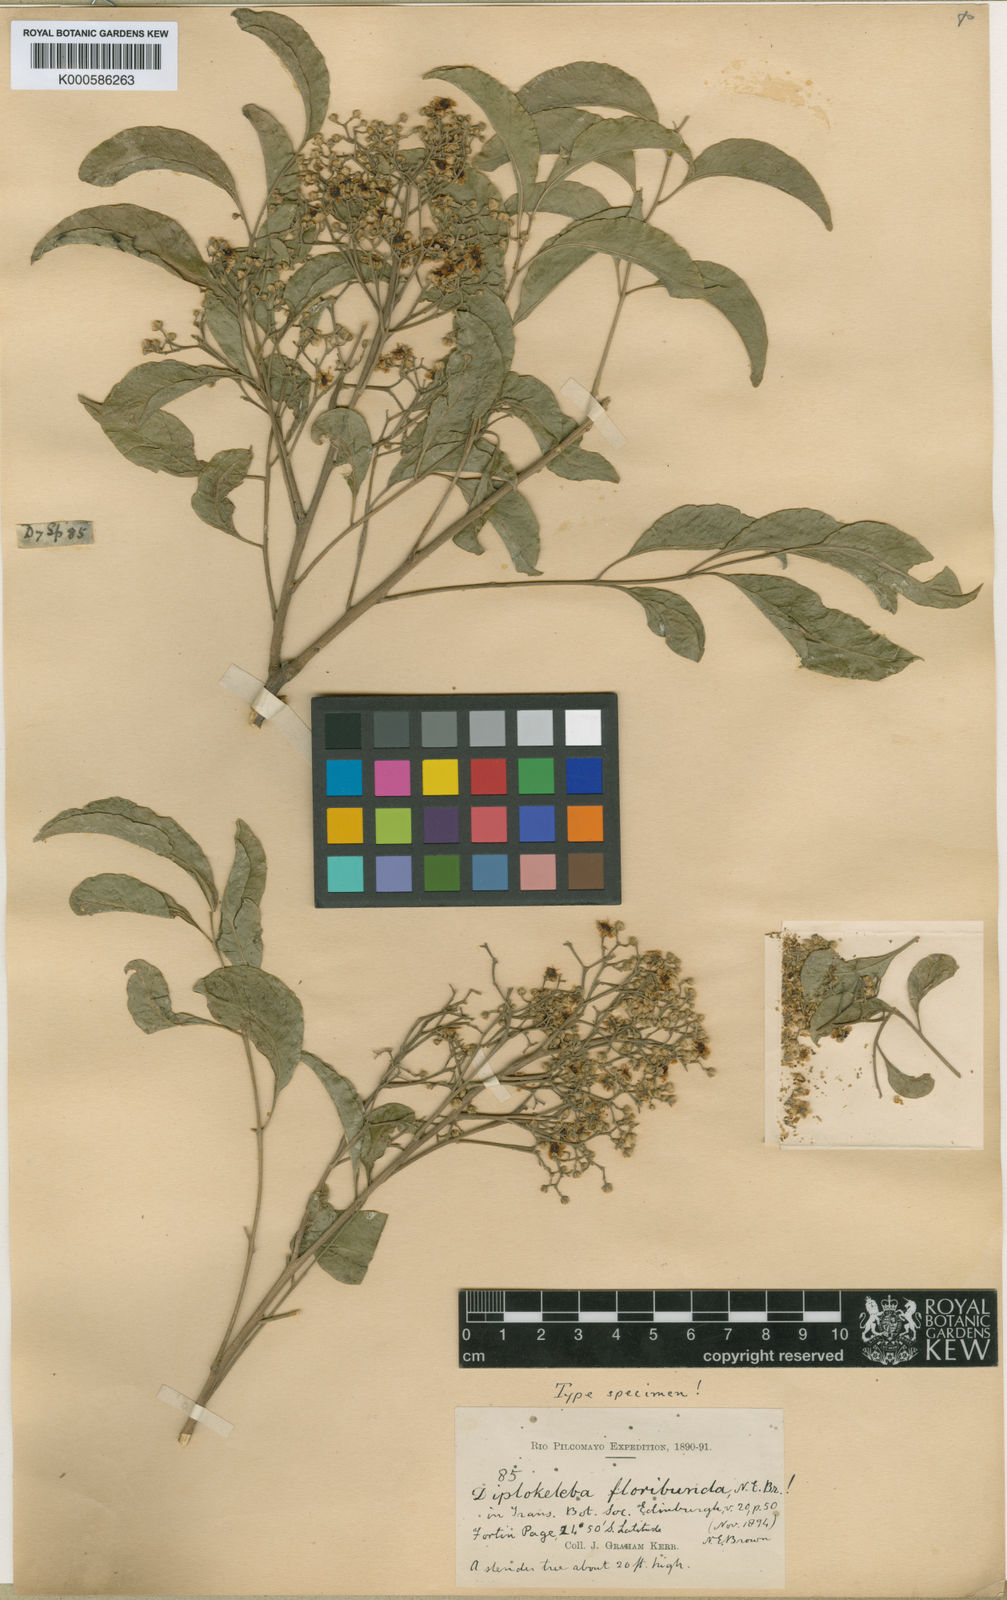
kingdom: Plantae
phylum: Tracheophyta
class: Magnoliopsida
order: Sapindales
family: Sapindaceae
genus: Diplokeleba
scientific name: Diplokeleba floribunda
